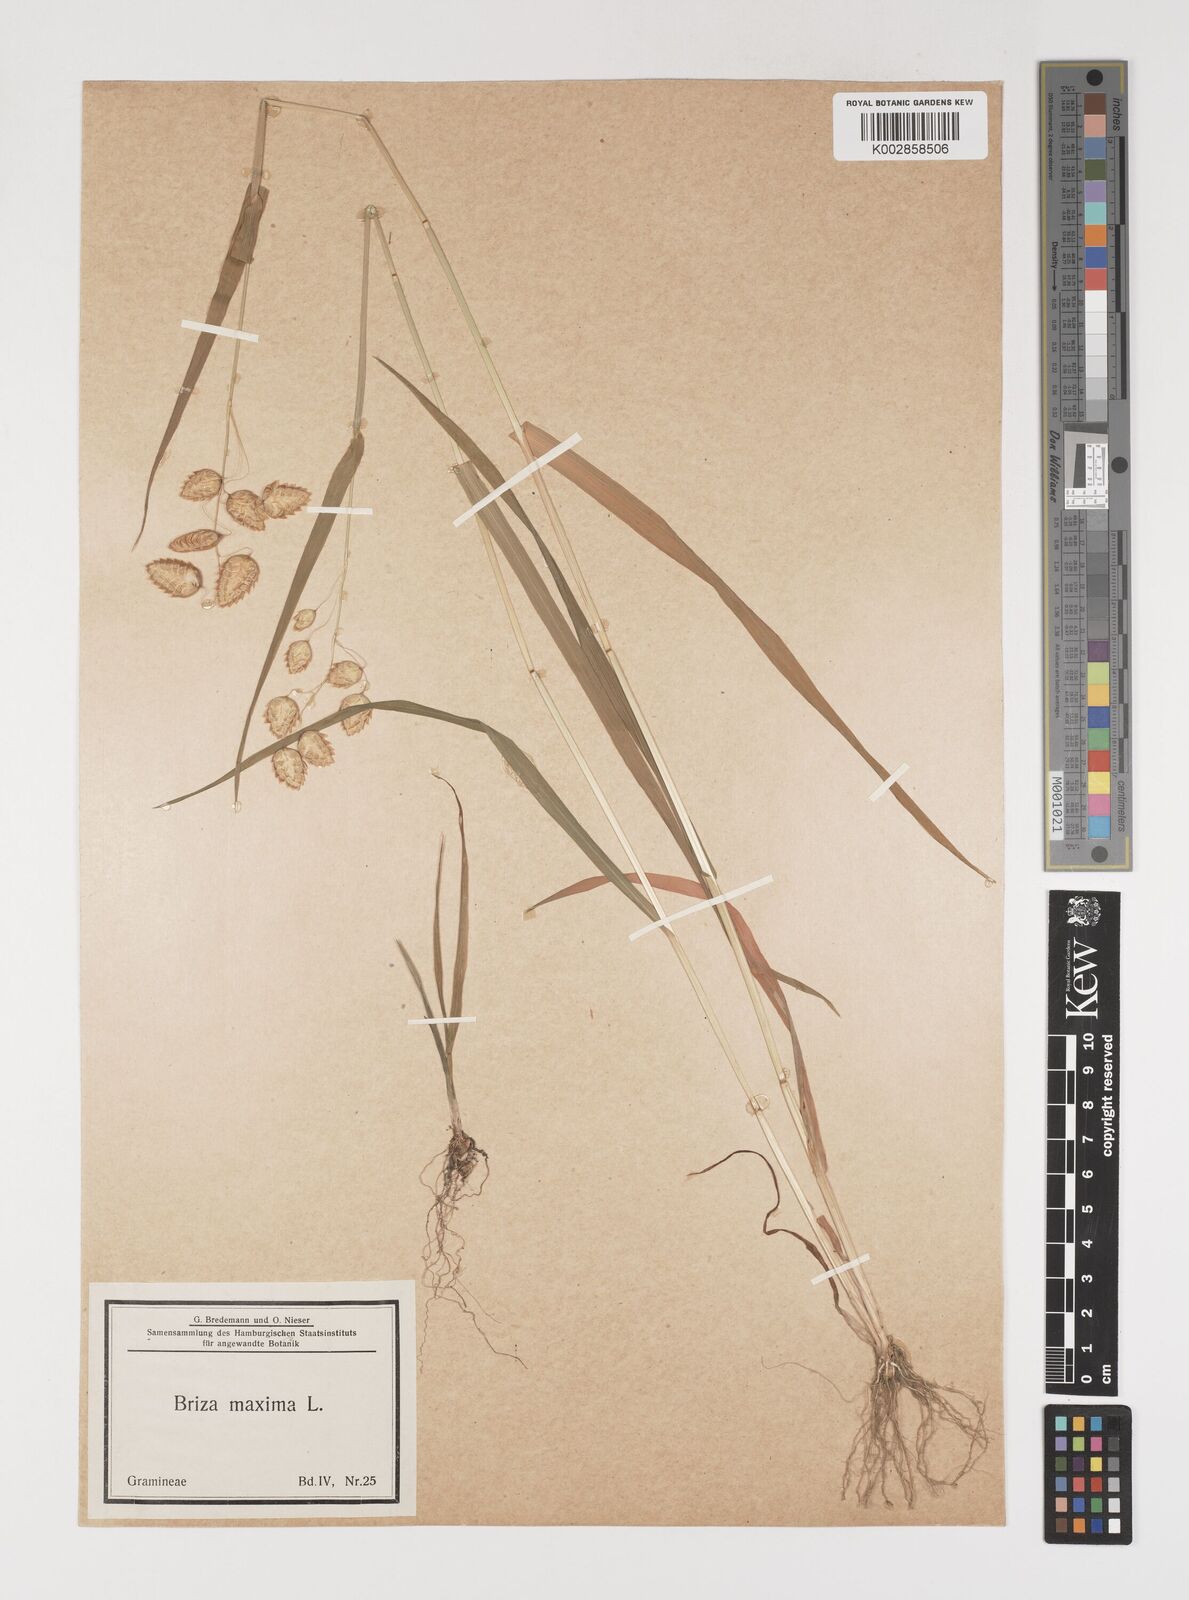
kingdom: Plantae
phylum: Tracheophyta
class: Liliopsida
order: Poales
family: Poaceae
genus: Briza
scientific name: Briza maxima
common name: Big quakinggrass
